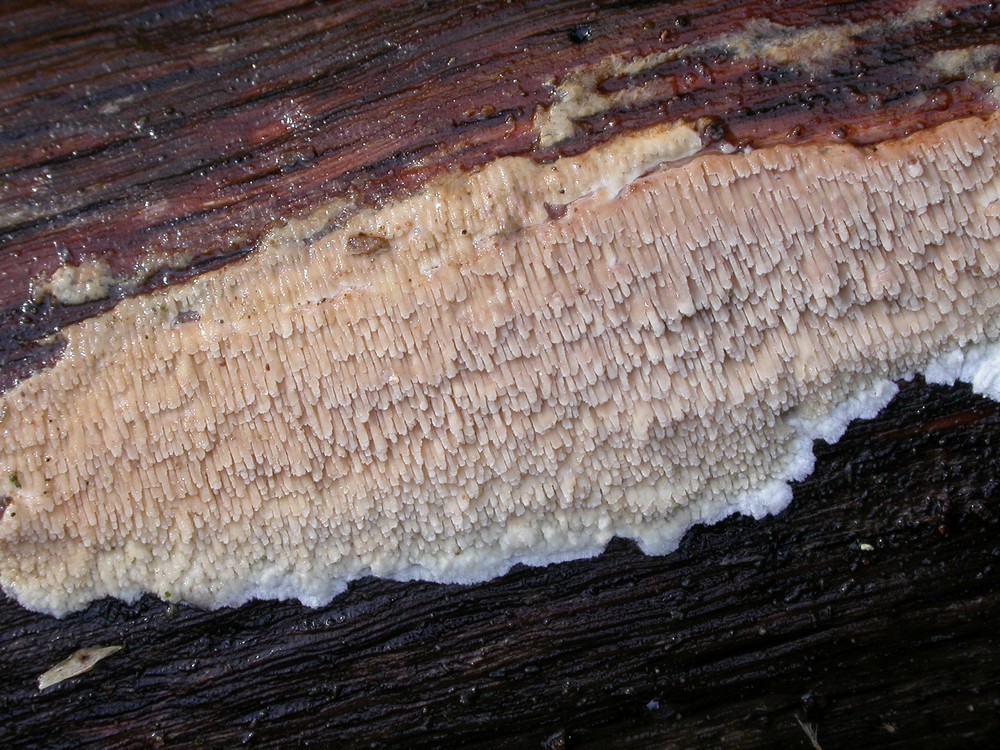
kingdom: Fungi
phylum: Basidiomycota
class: Agaricomycetes
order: Polyporales
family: Meruliaceae
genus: Phlebia
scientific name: Phlebia rufa
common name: ege-åresvamp
